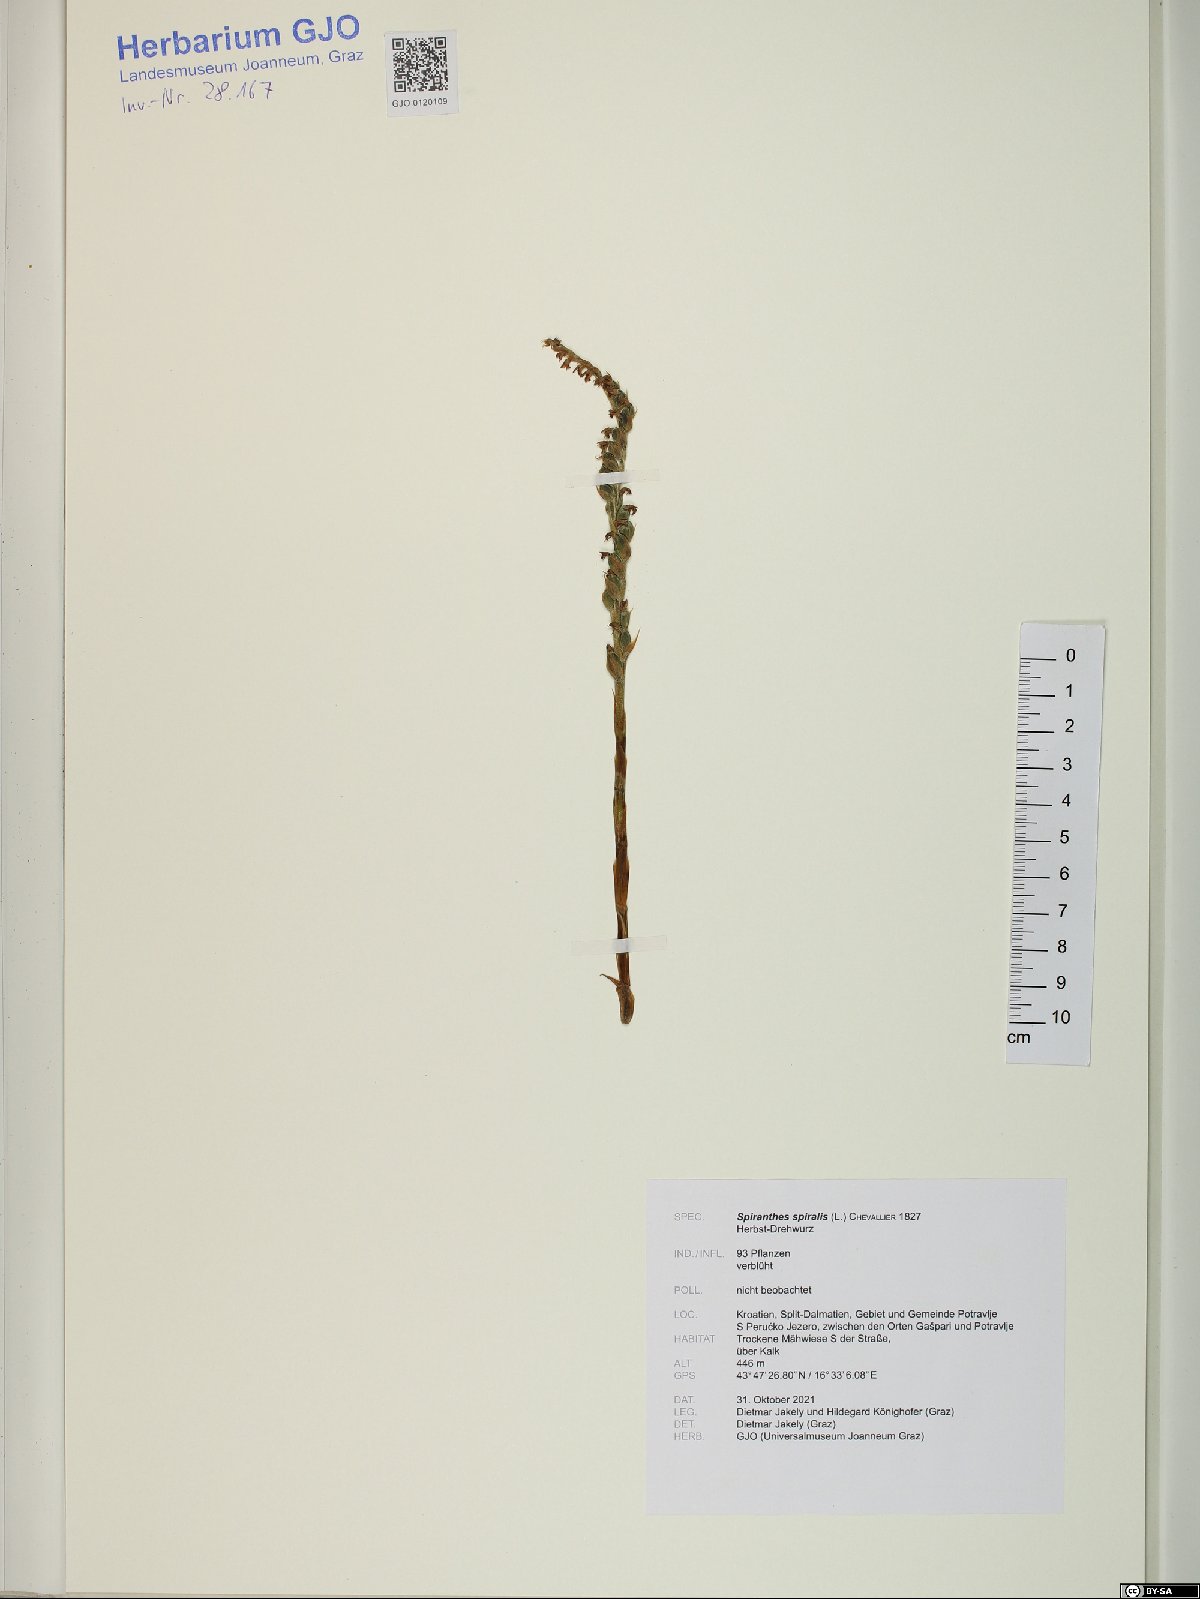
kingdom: Plantae
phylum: Tracheophyta
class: Liliopsida
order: Asparagales
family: Orchidaceae
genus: Spiranthes
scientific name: Spiranthes spiralis
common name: Autumn lady's-tresses
